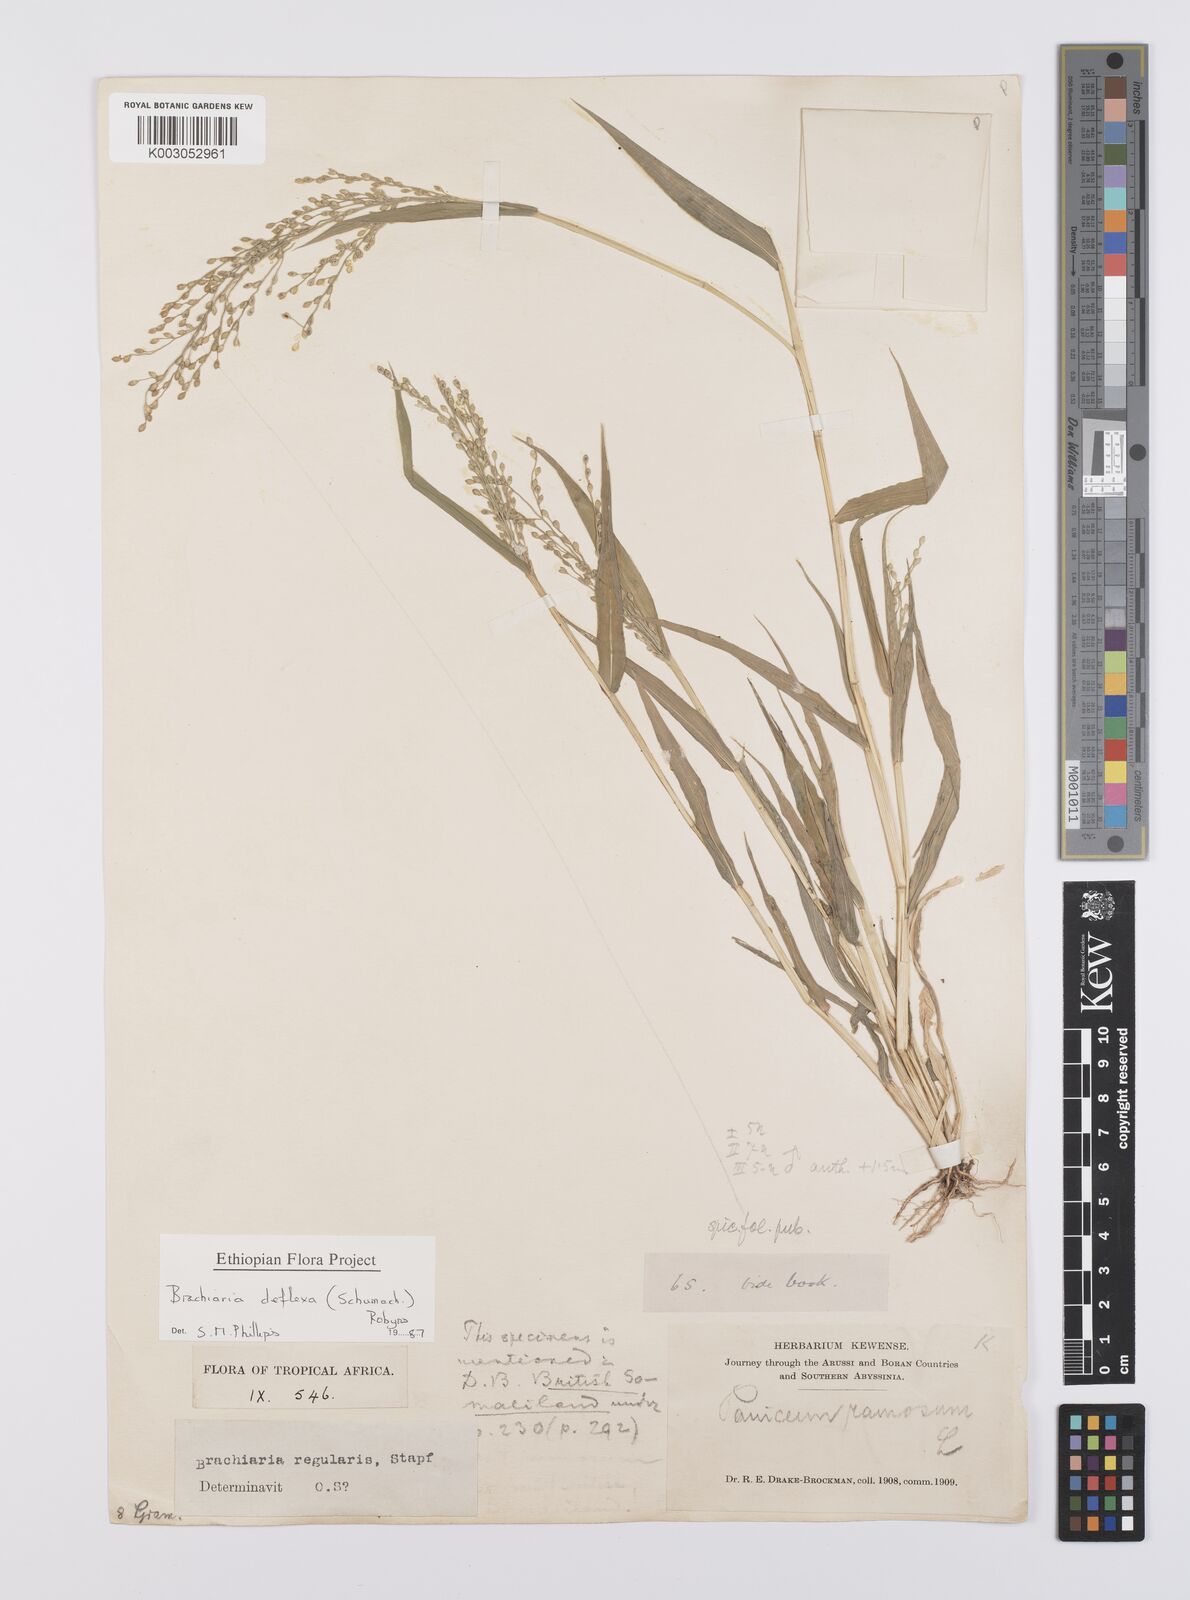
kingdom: Plantae
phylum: Tracheophyta
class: Liliopsida
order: Poales
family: Poaceae
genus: Urochloa
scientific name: Urochloa deflexa
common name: Guinea millet
